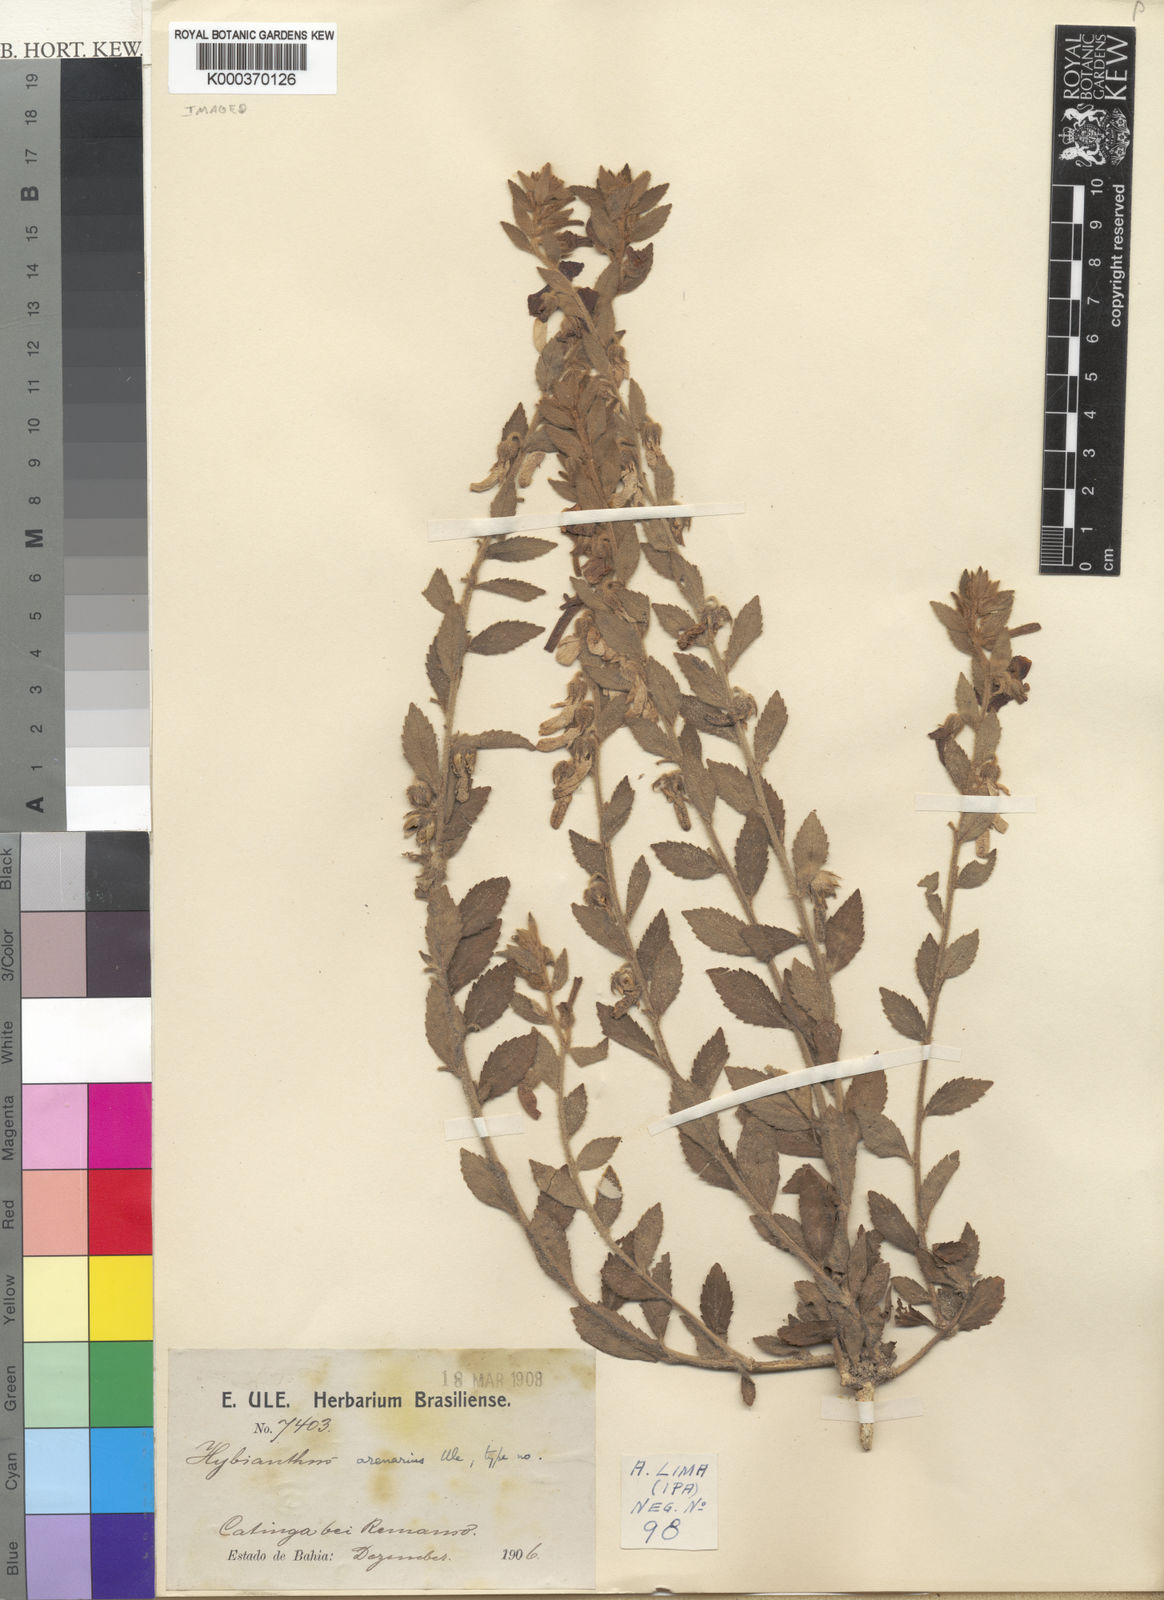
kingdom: Plantae
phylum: Tracheophyta
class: Magnoliopsida
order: Malpighiales
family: Violaceae
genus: Pombalia
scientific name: Pombalia arenaria
